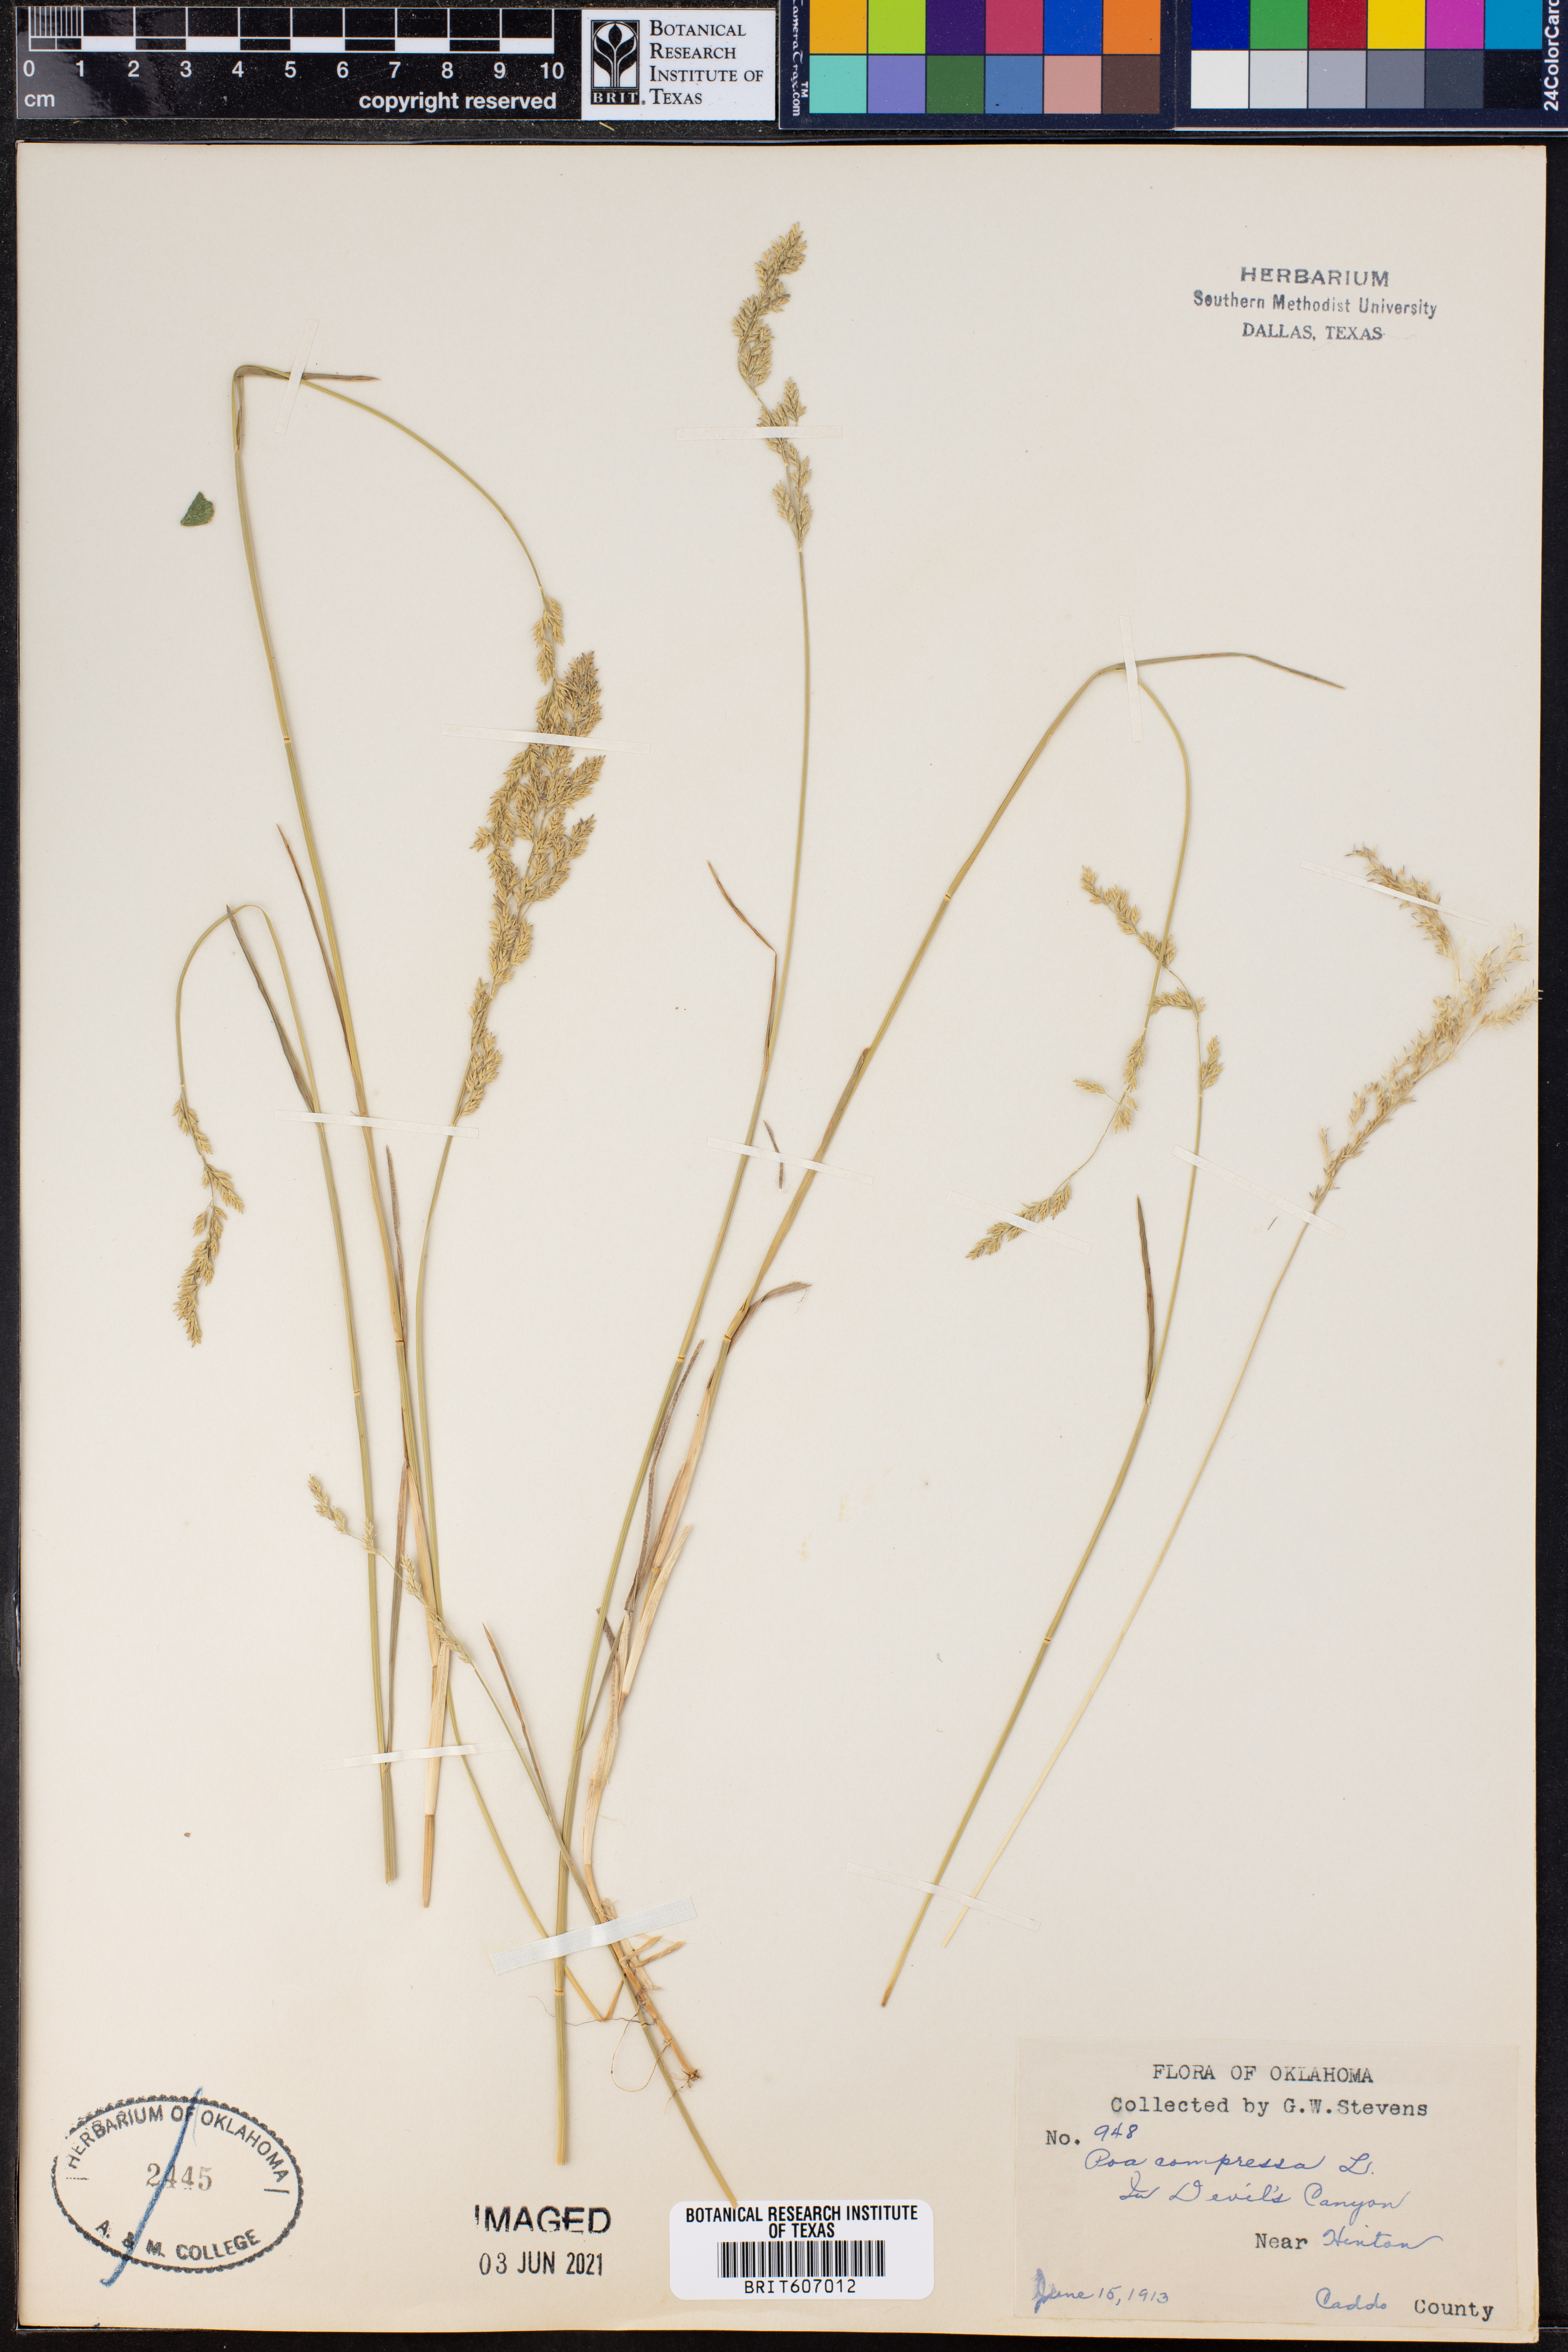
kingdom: Plantae
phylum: Tracheophyta
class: Liliopsida
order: Poales
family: Poaceae
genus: Poa
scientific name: Poa compressa
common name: Canada bluegrass
